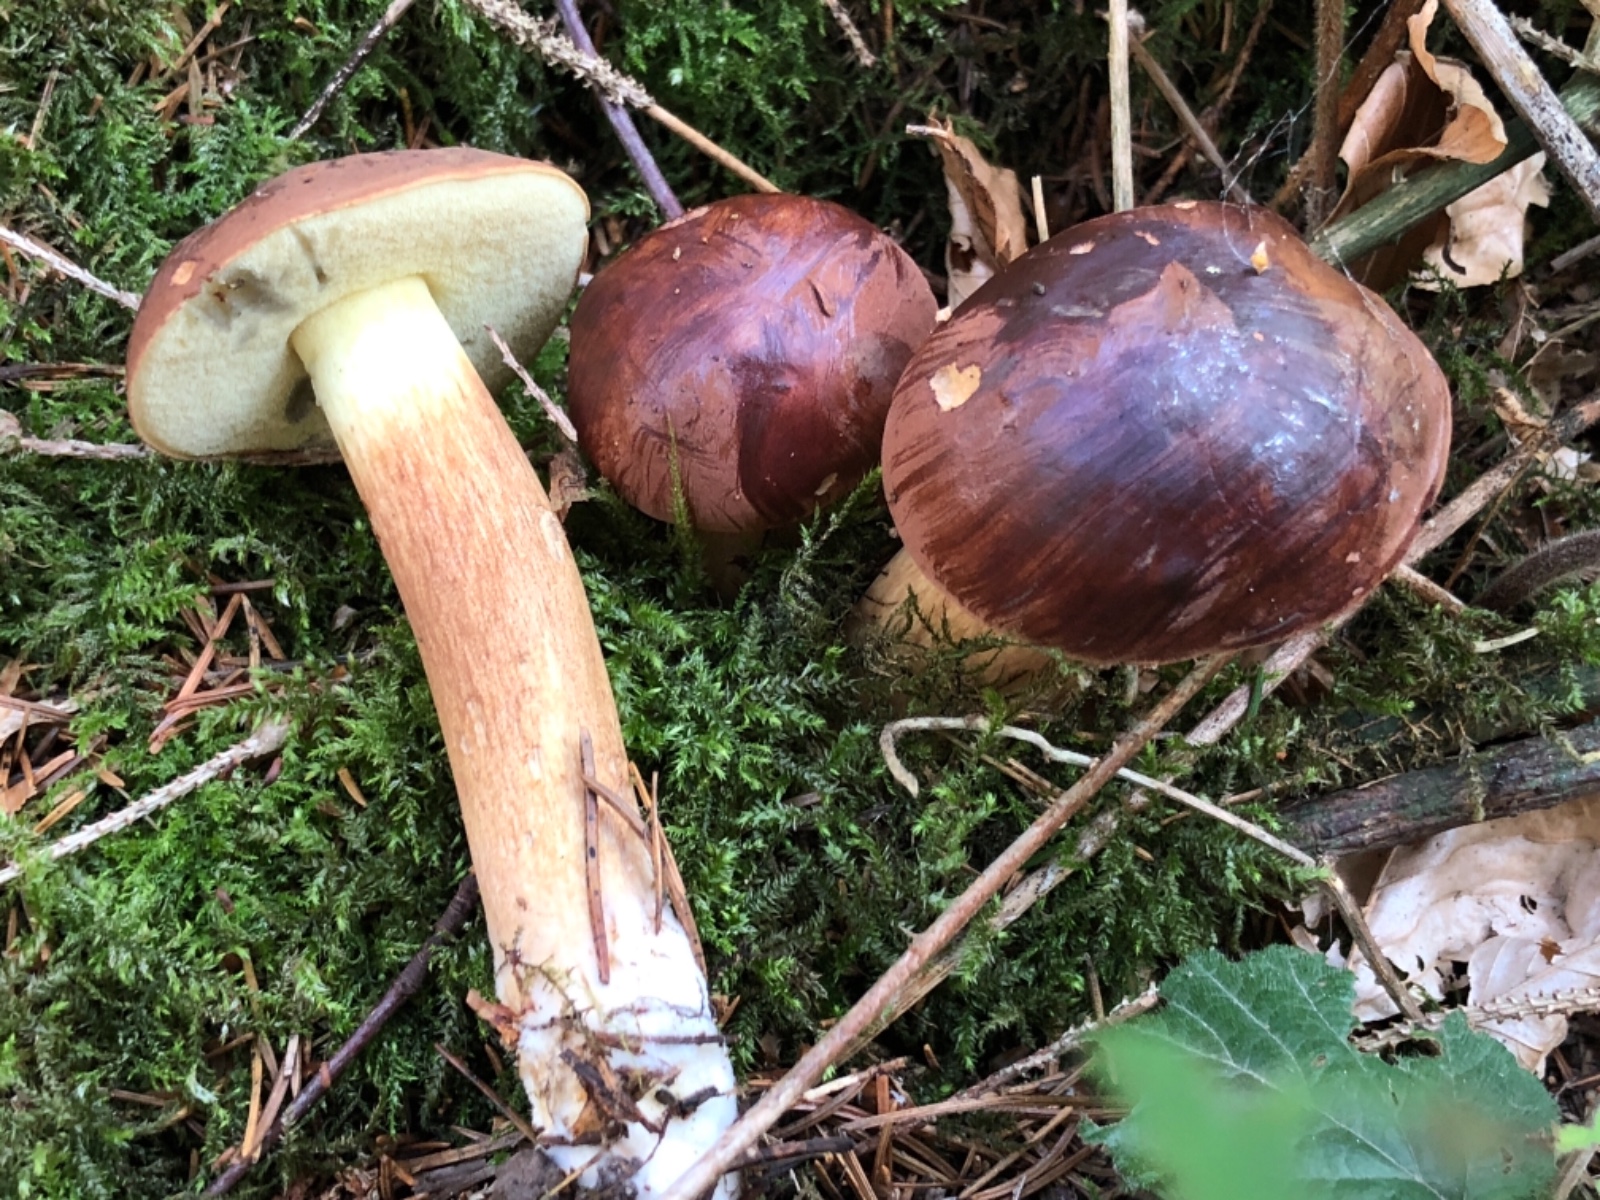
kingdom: Fungi
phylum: Basidiomycota
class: Agaricomycetes
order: Boletales
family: Boletaceae
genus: Imleria
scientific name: Imleria badia
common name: brunstokket rørhat
